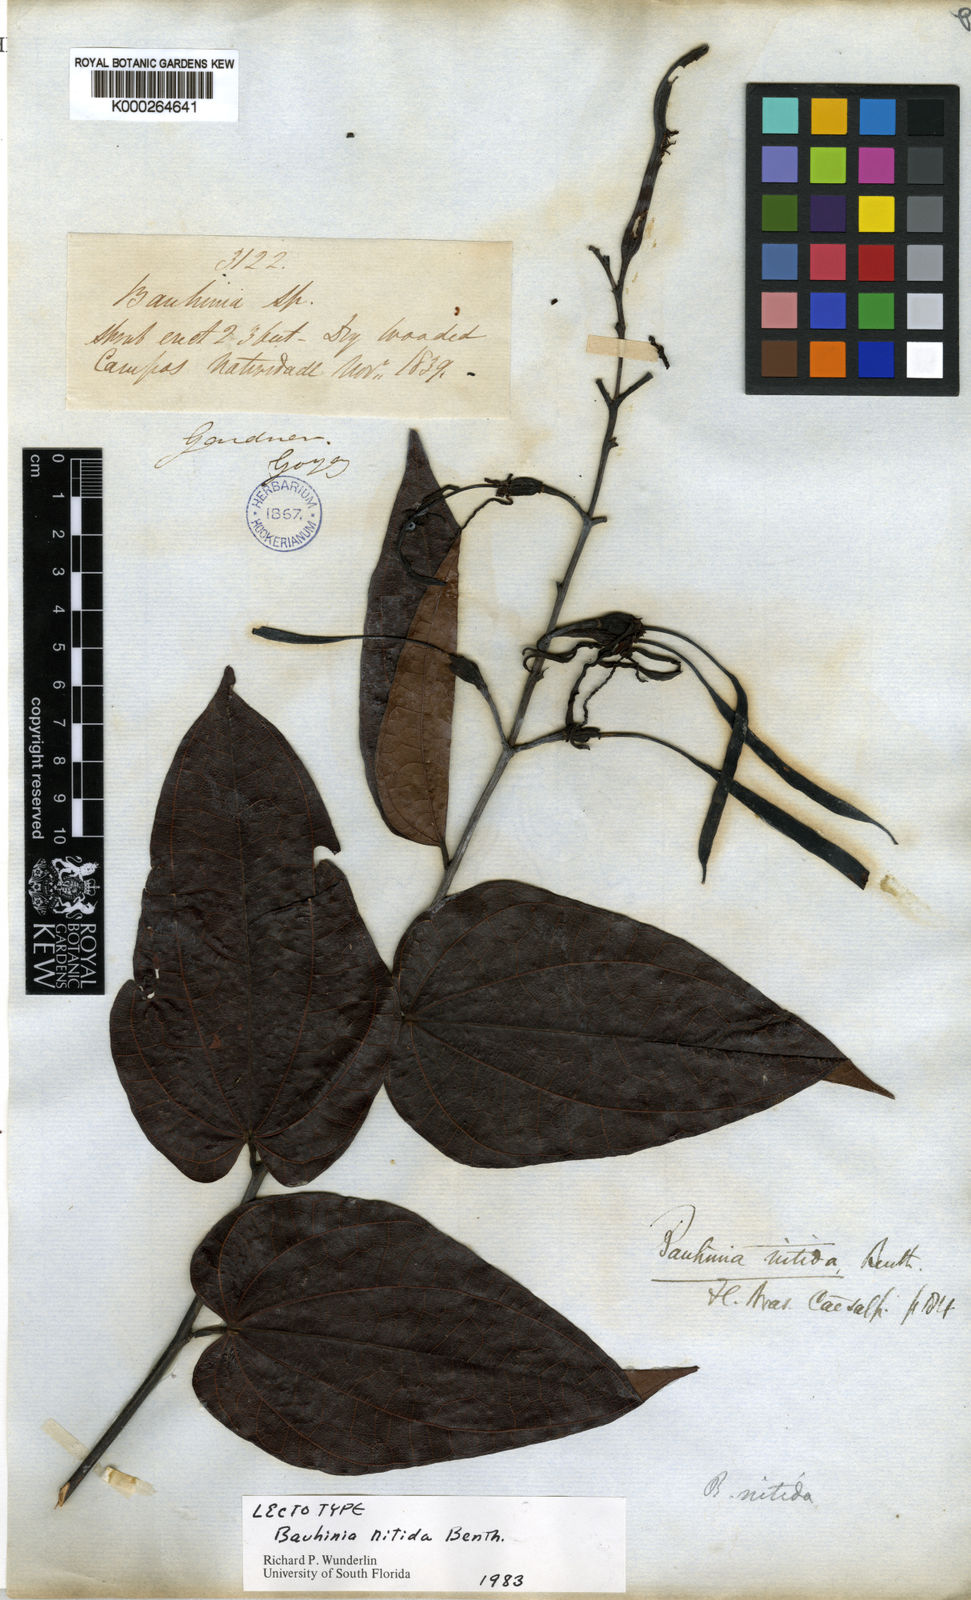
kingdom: Plantae
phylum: Tracheophyta
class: Magnoliopsida
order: Fabales
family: Fabaceae
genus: Bauhinia
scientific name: Bauhinia dubia
